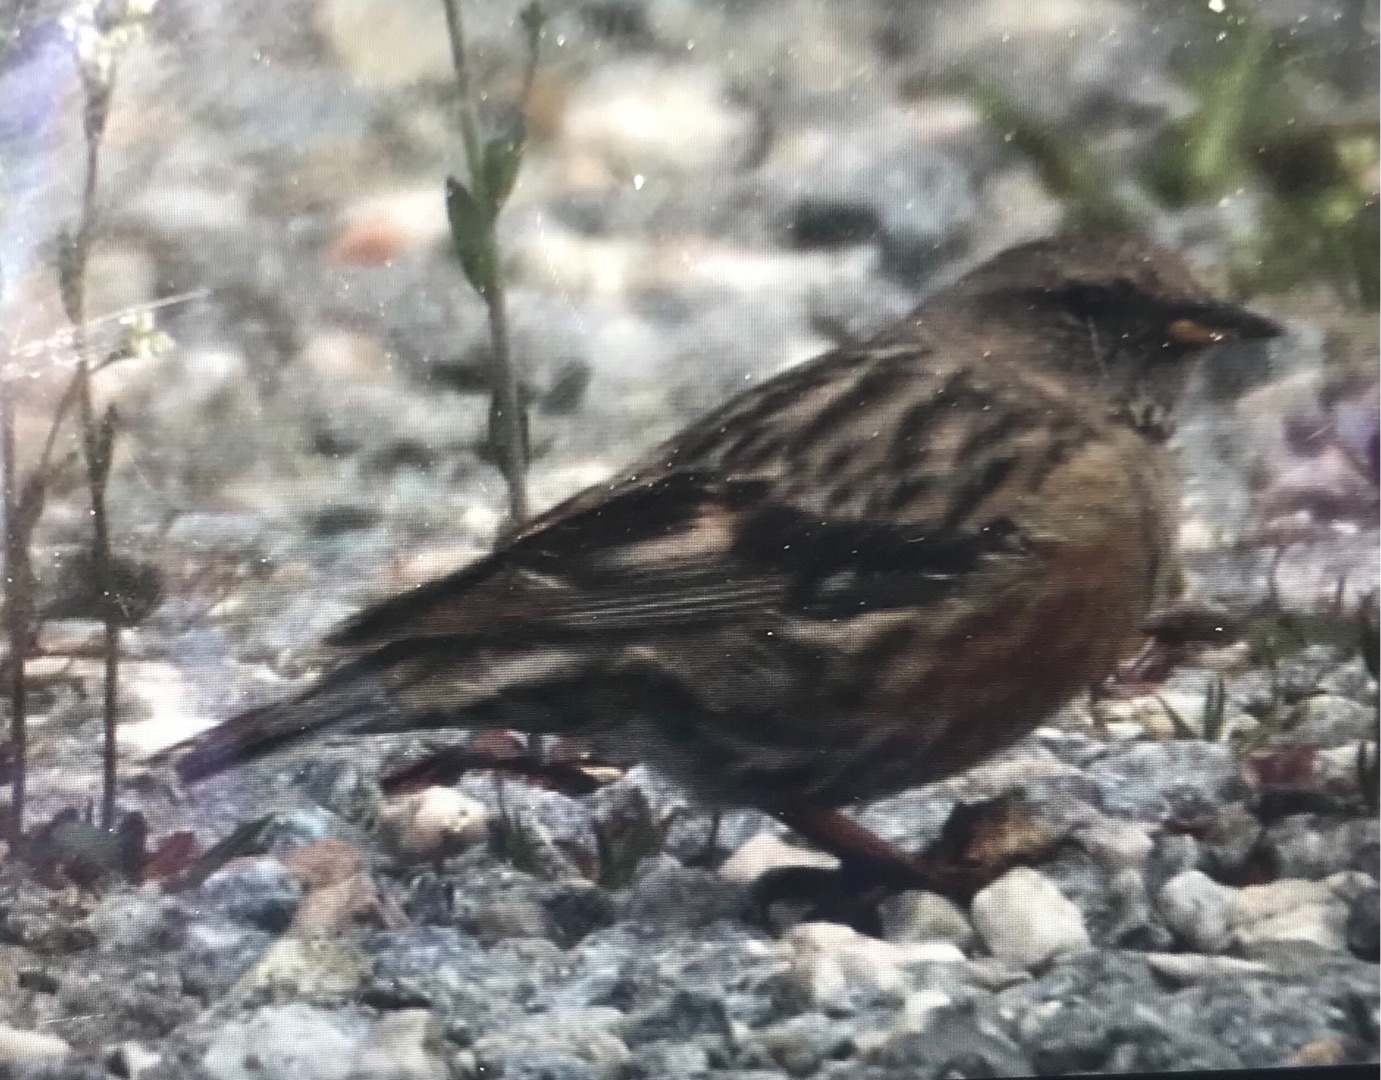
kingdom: Animalia
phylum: Chordata
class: Aves
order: Passeriformes
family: Prunellidae
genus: Prunella
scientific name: Prunella collaris
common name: Alpejernspurv
